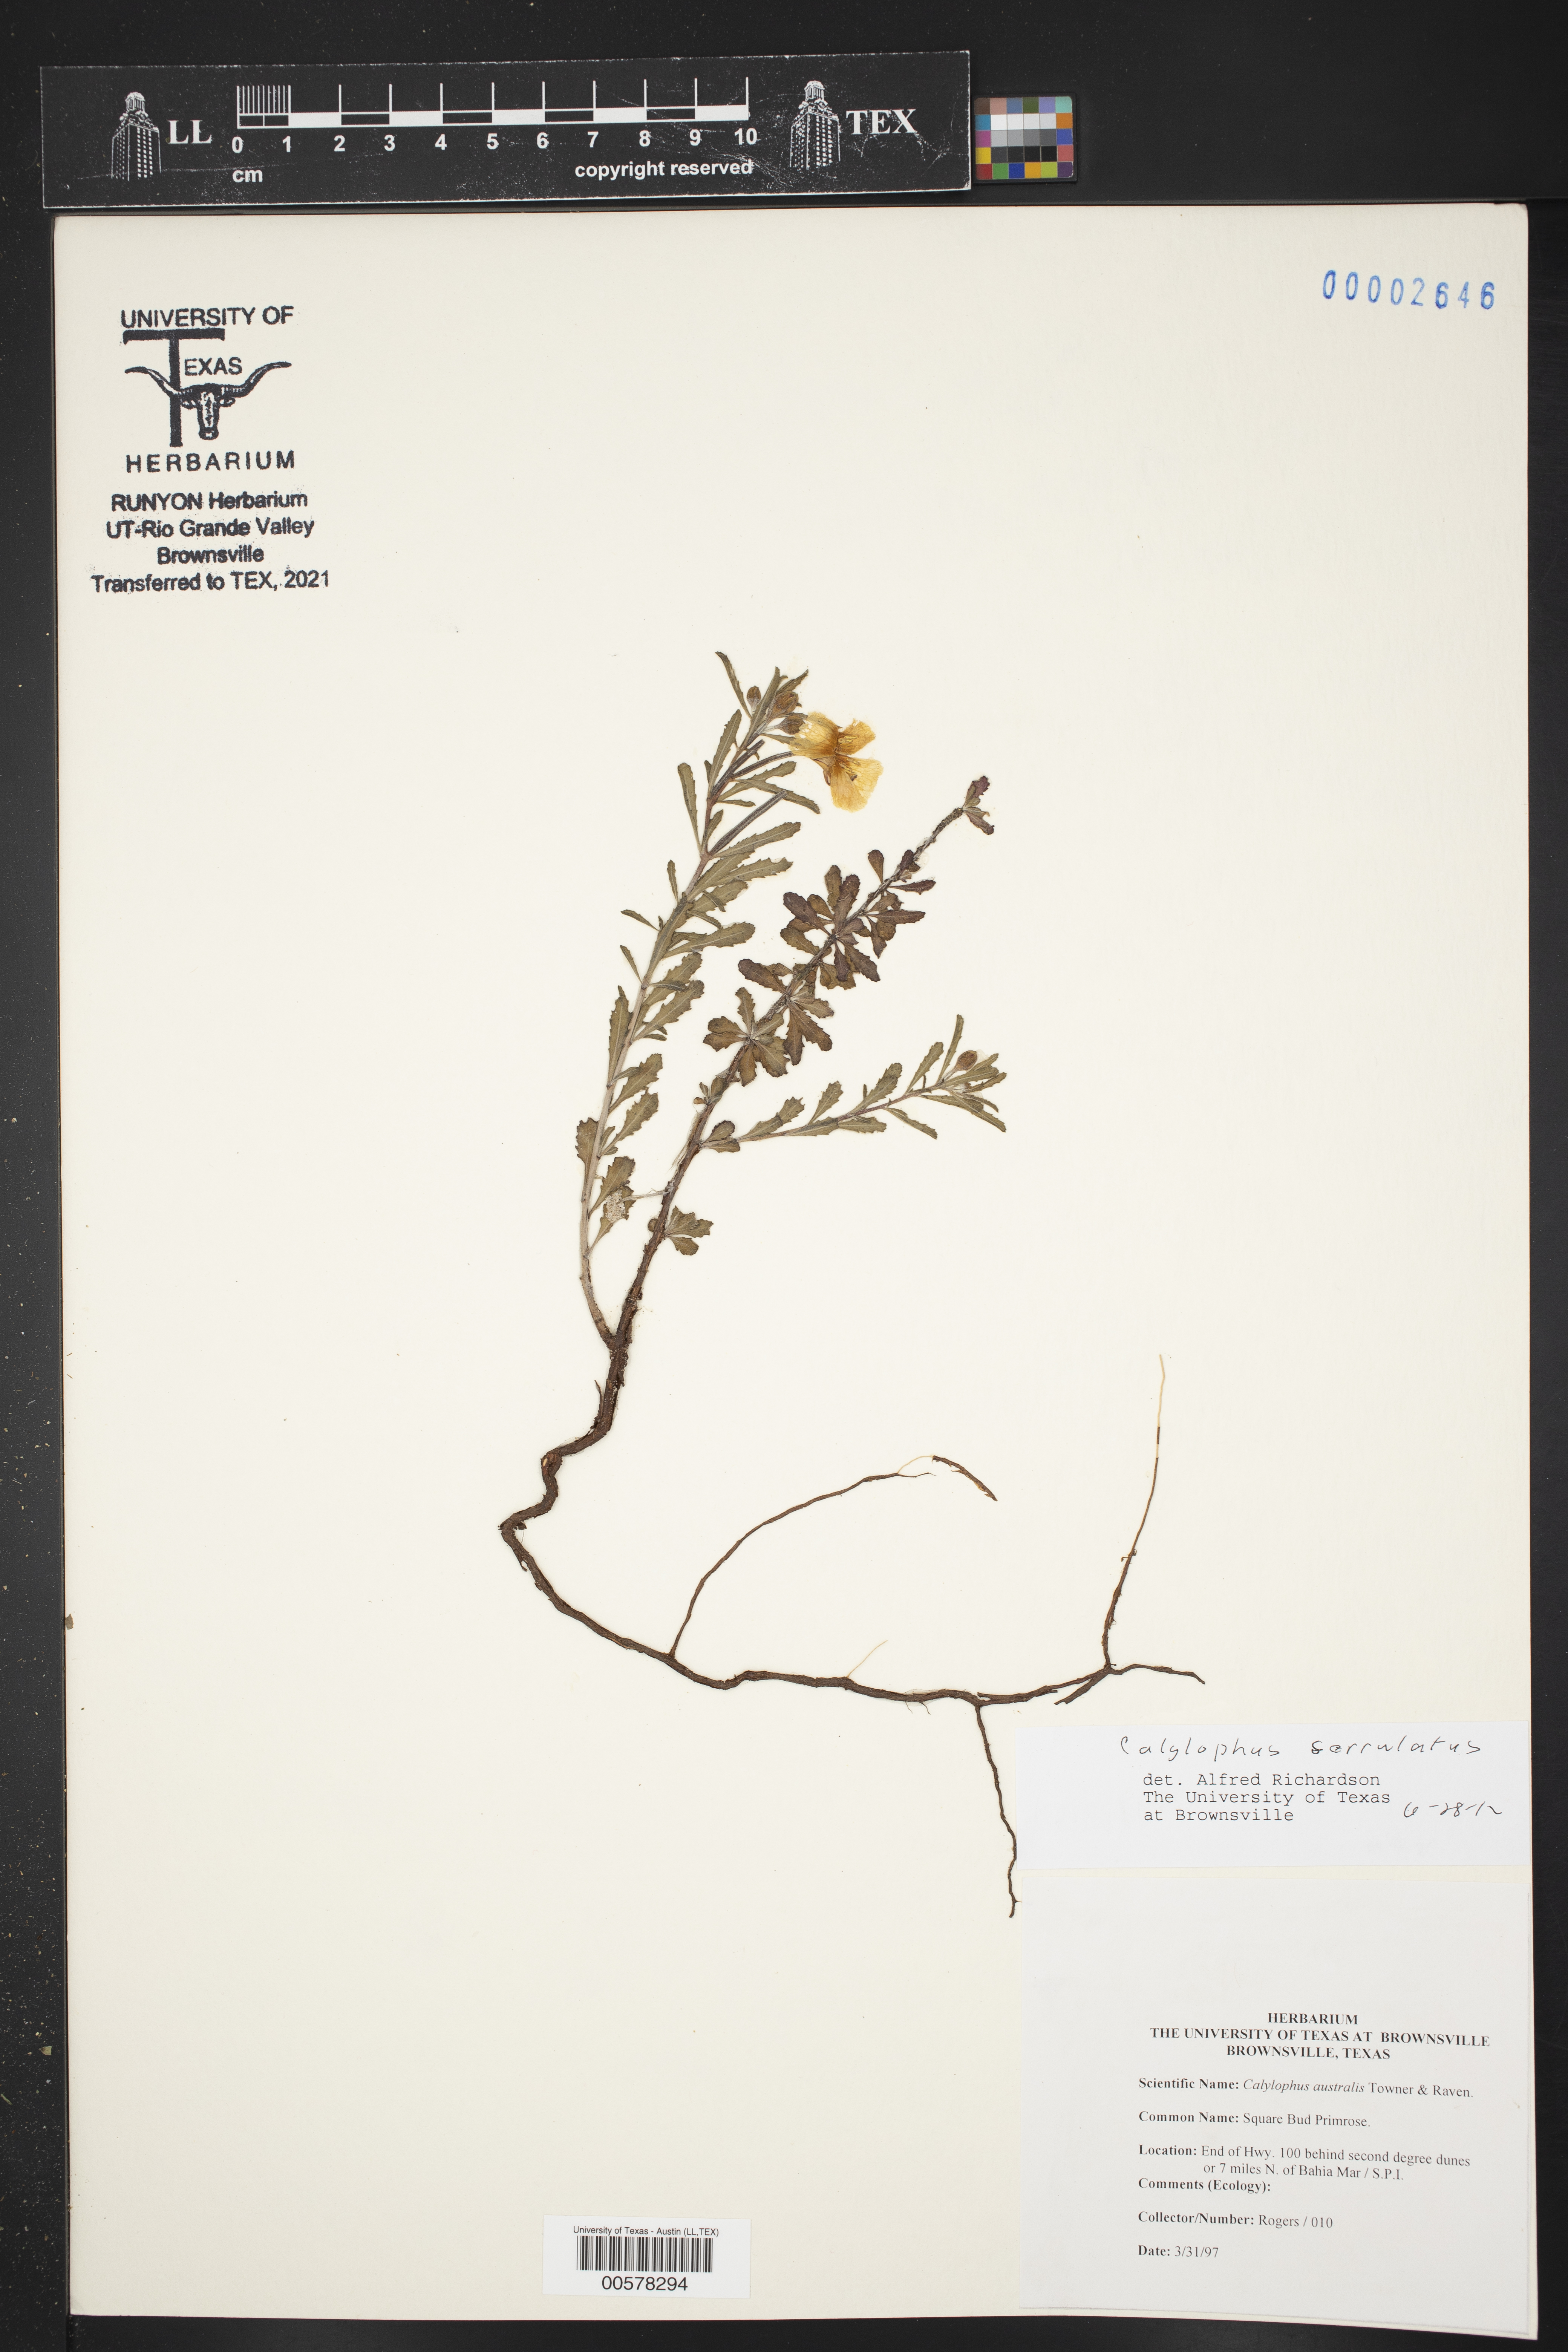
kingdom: Plantae
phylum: Tracheophyta
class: Magnoliopsida
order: Myrtales
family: Onagraceae
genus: Oenothera
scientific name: Oenothera serrulata
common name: Half-shrub calylophus
